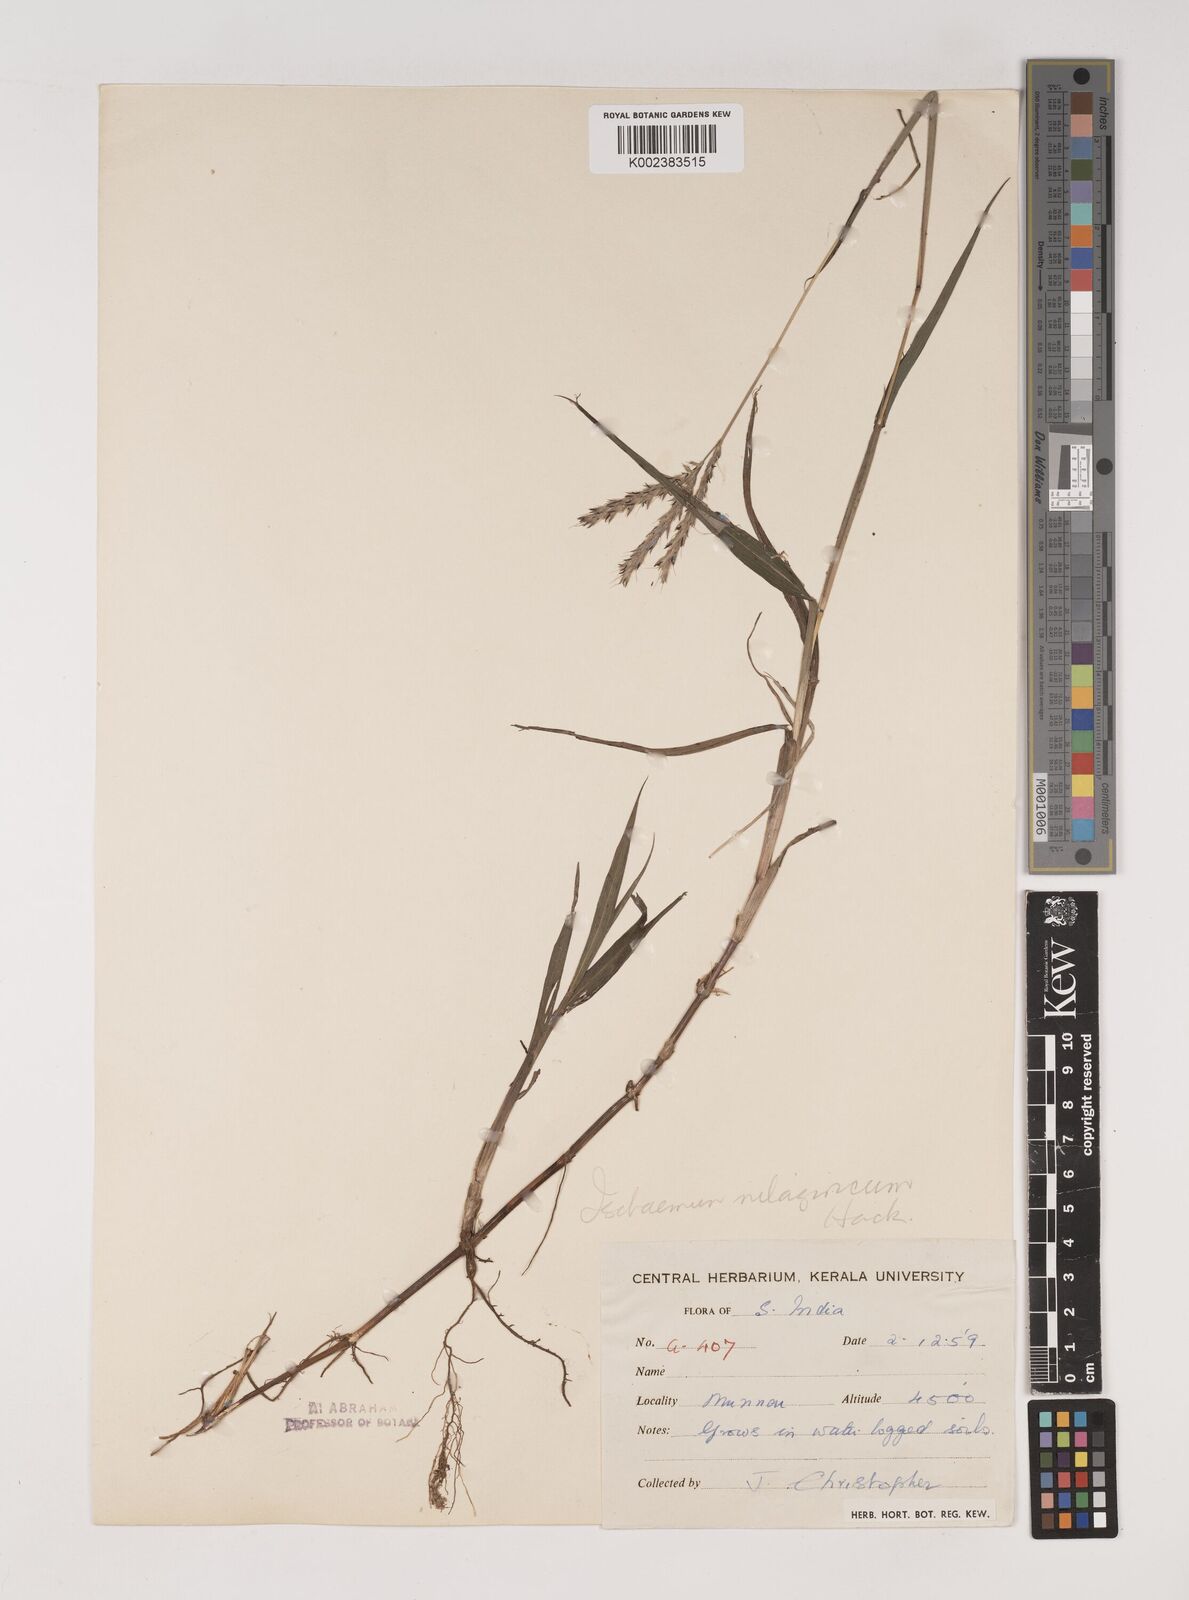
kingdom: Plantae
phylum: Tracheophyta
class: Liliopsida
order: Poales
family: Poaceae
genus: Ischaemum
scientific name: Ischaemum
